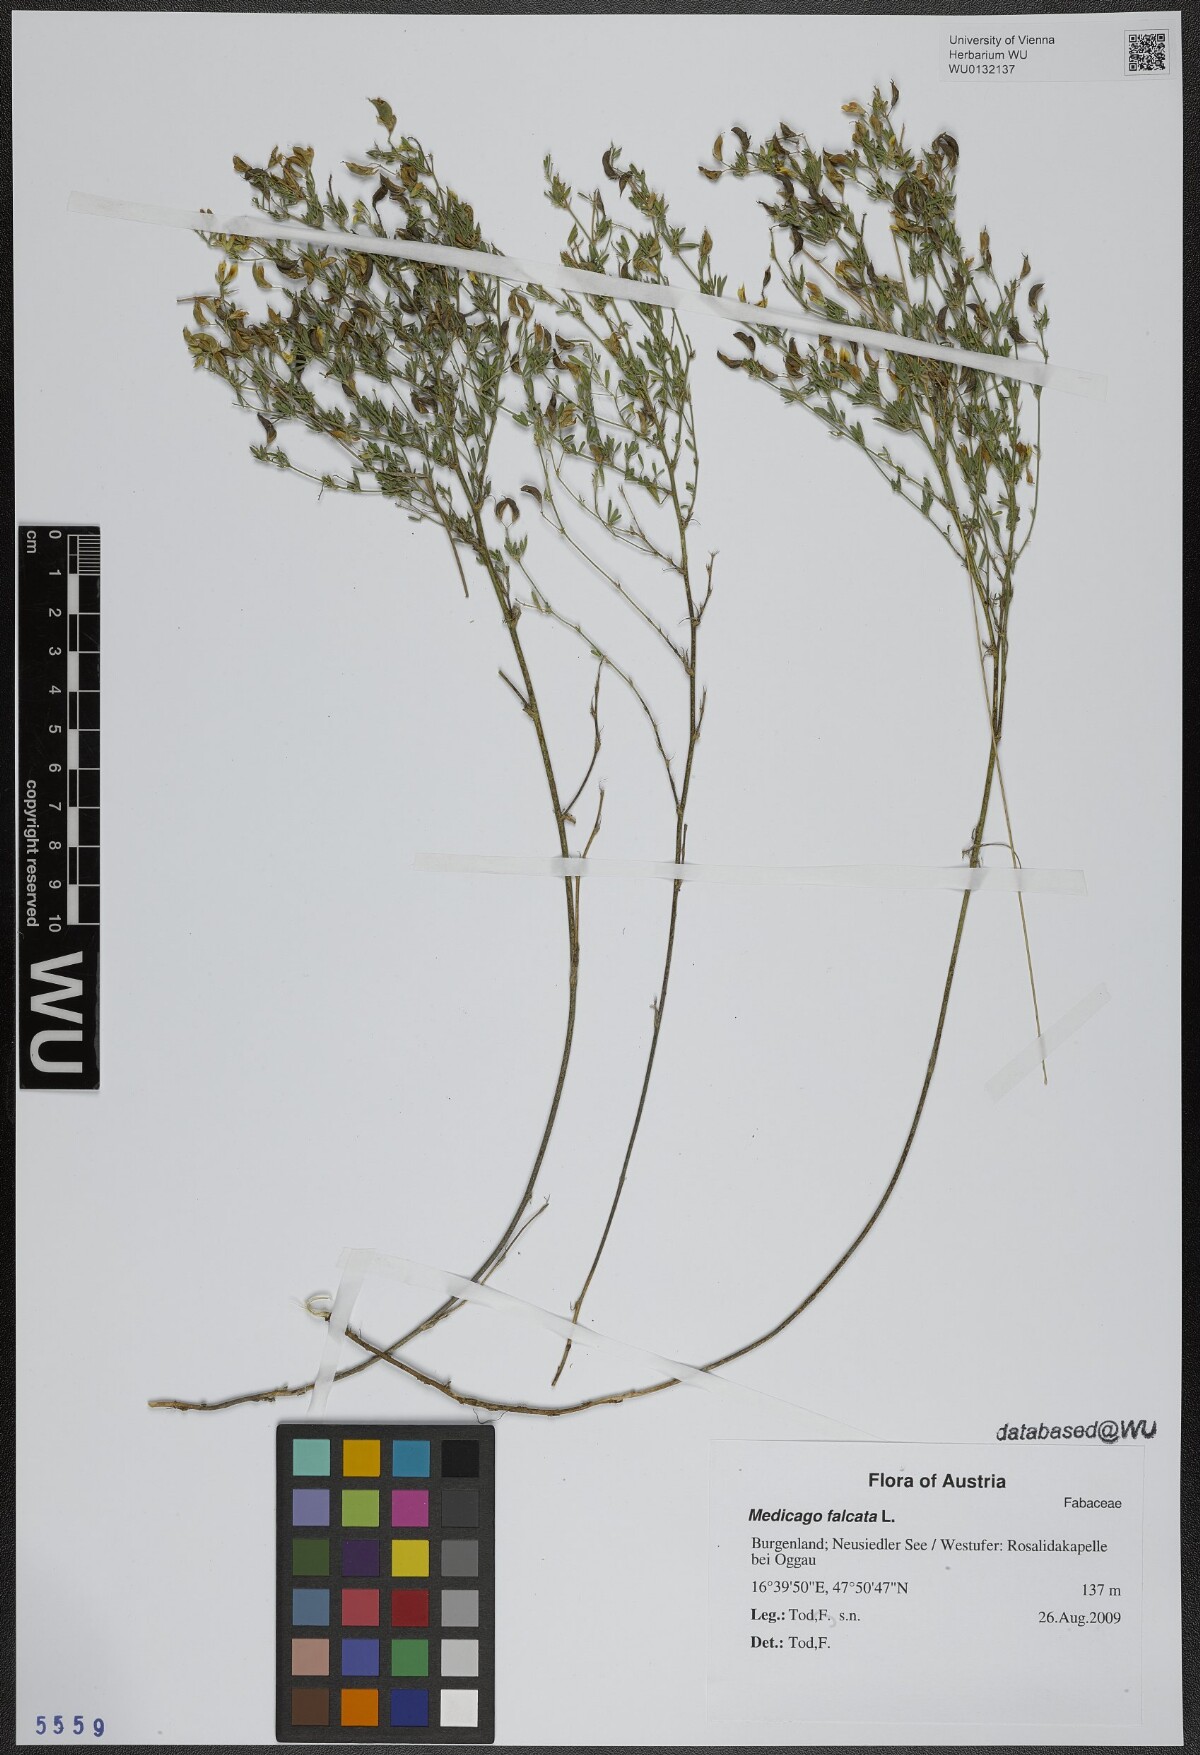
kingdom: Plantae
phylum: Tracheophyta
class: Magnoliopsida
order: Fabales
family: Fabaceae
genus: Medicago
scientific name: Medicago falcata
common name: Sickle medick
